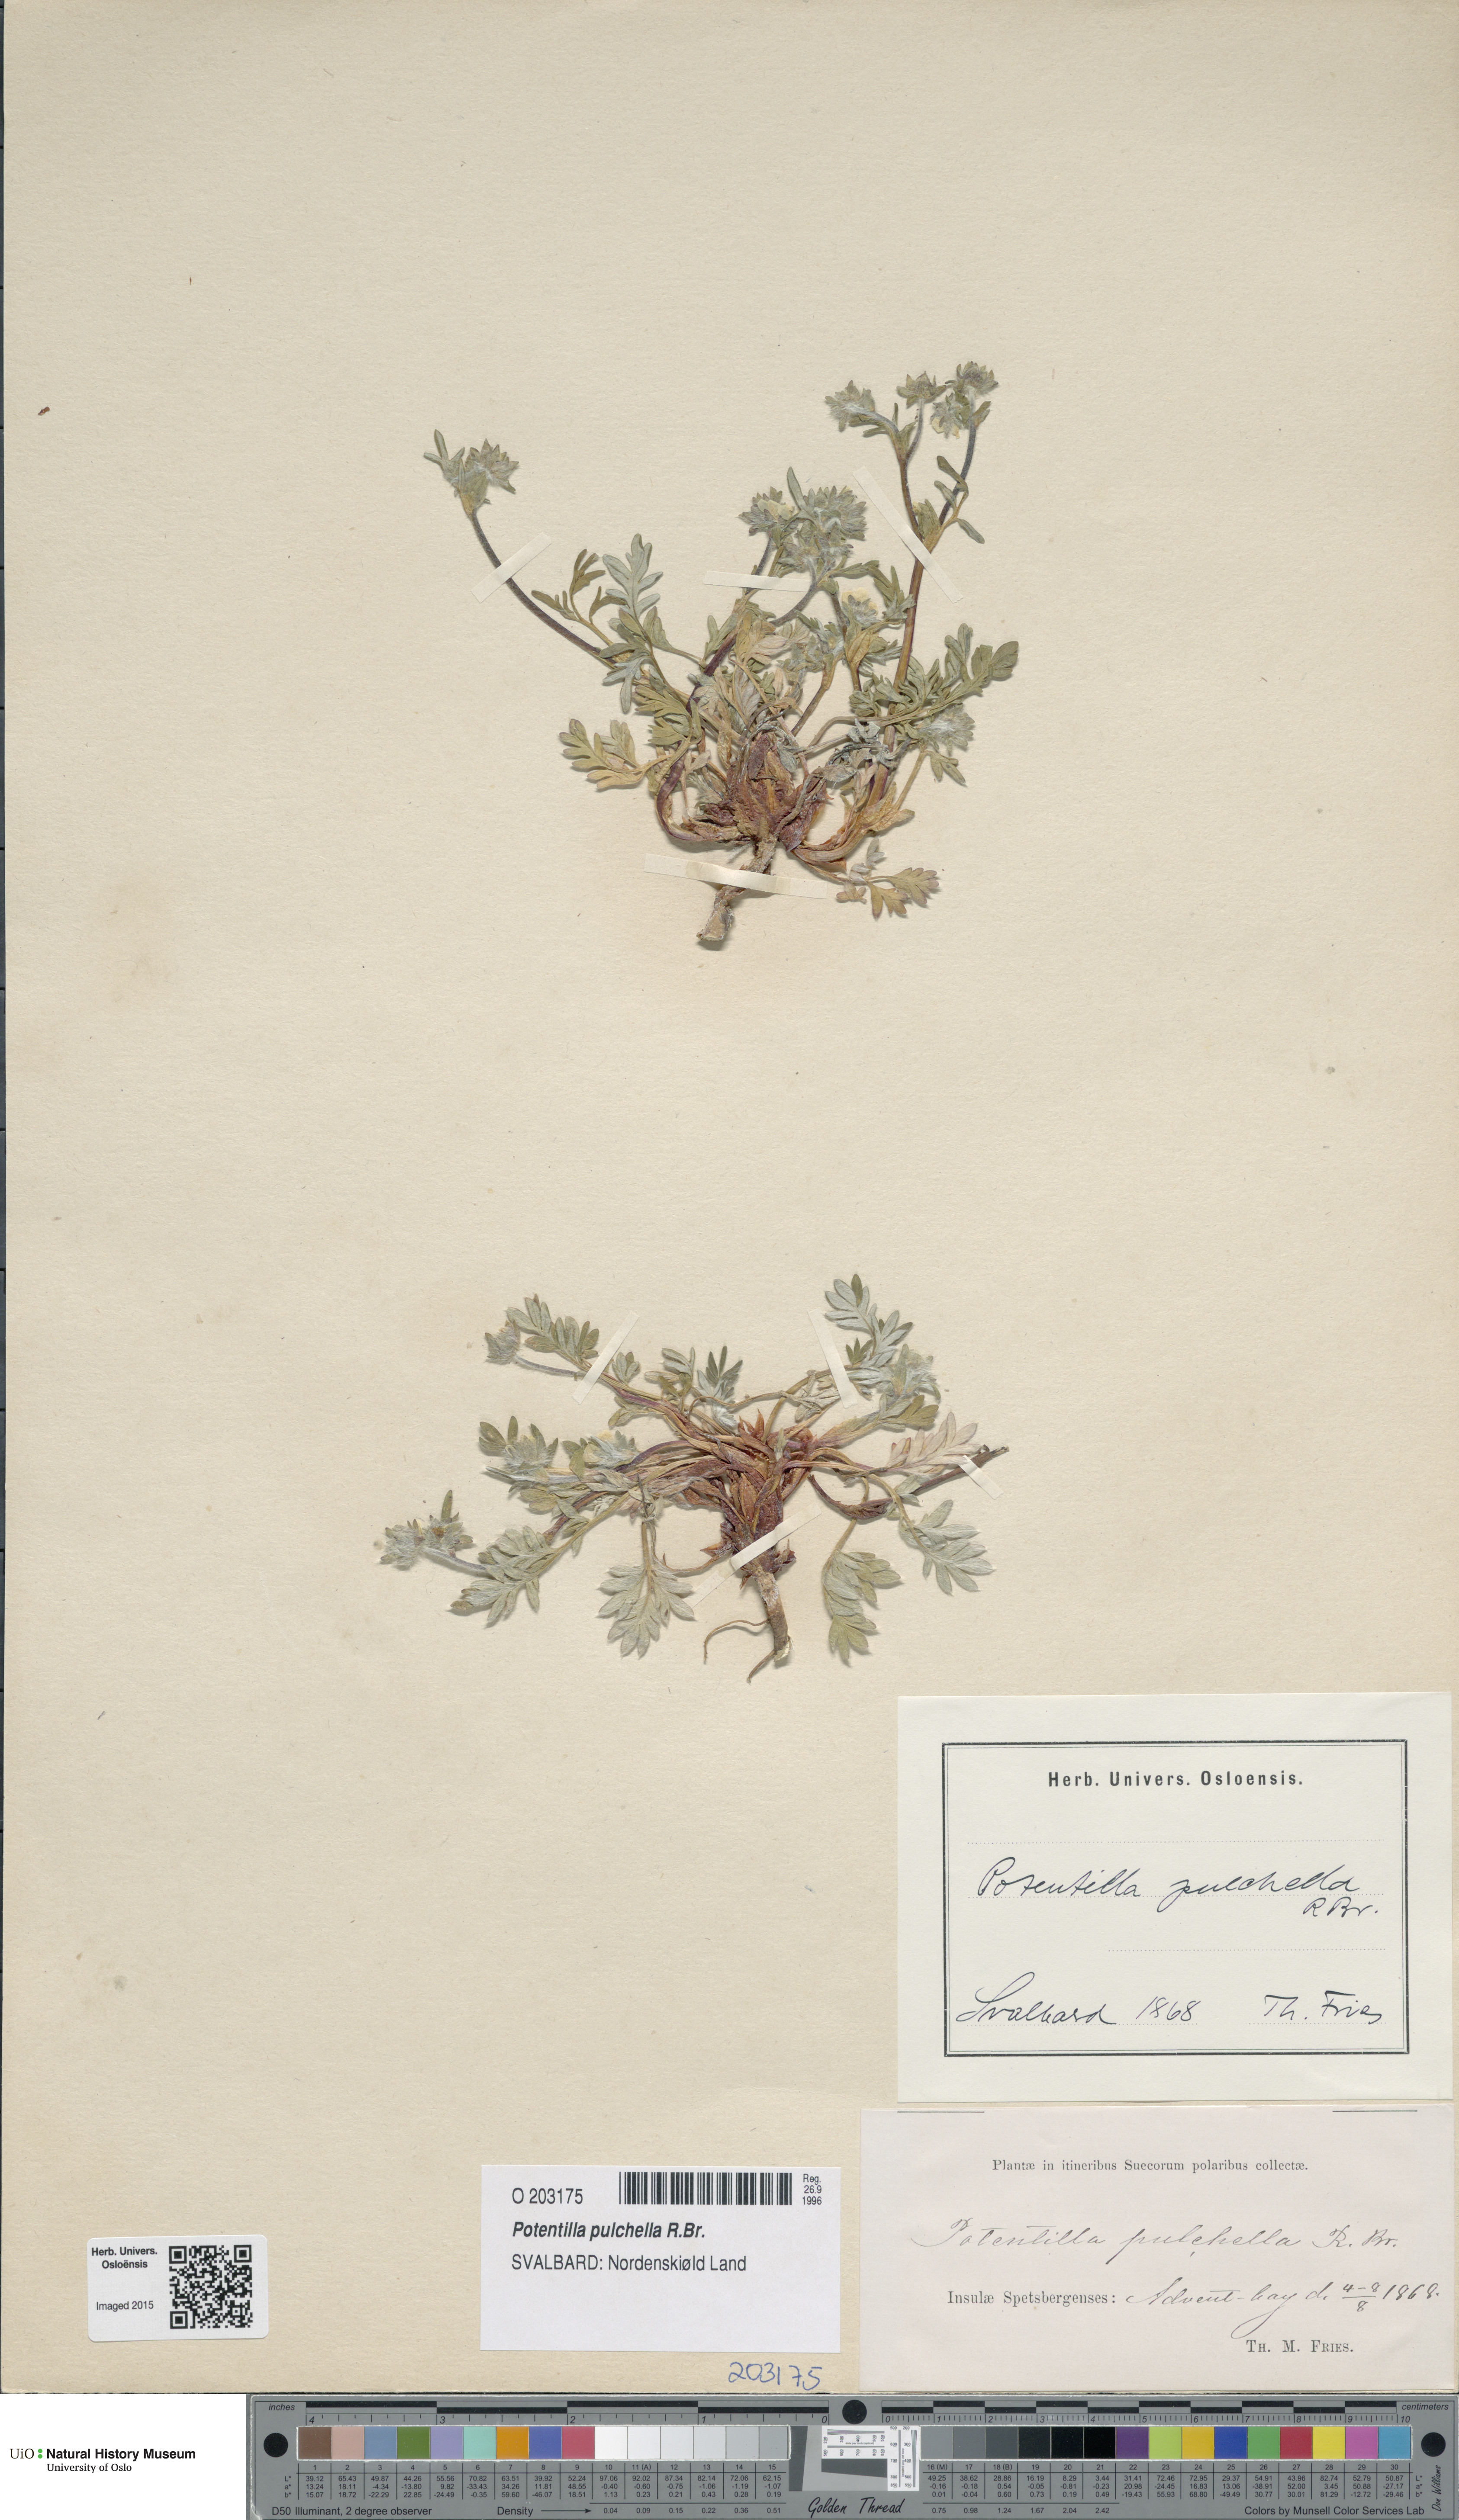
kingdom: Plantae
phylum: Tracheophyta
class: Magnoliopsida
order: Rosales
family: Rosaceae
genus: Potentilla
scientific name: Potentilla pulchella
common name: Pretty cinquefoil
